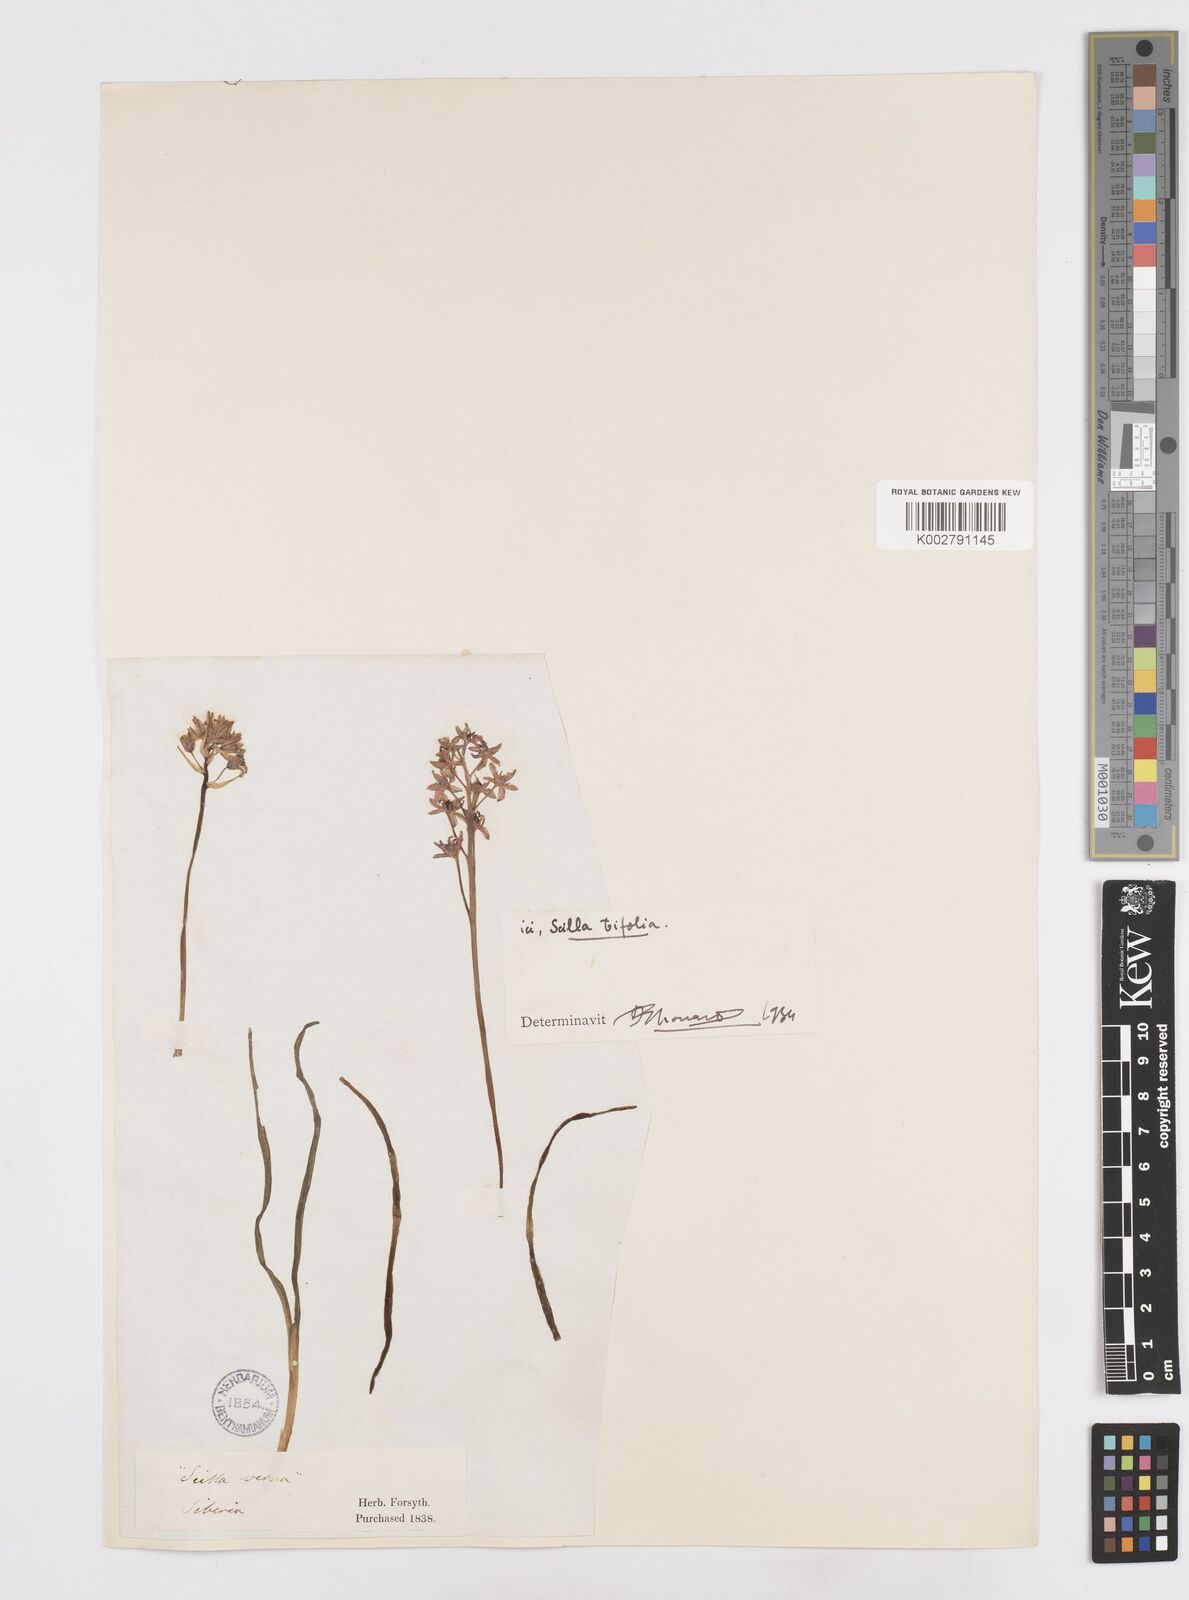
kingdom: Plantae
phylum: Tracheophyta
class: Liliopsida
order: Asparagales
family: Asparagaceae
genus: Scilla
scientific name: Scilla bifolia
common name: Alpine squill
